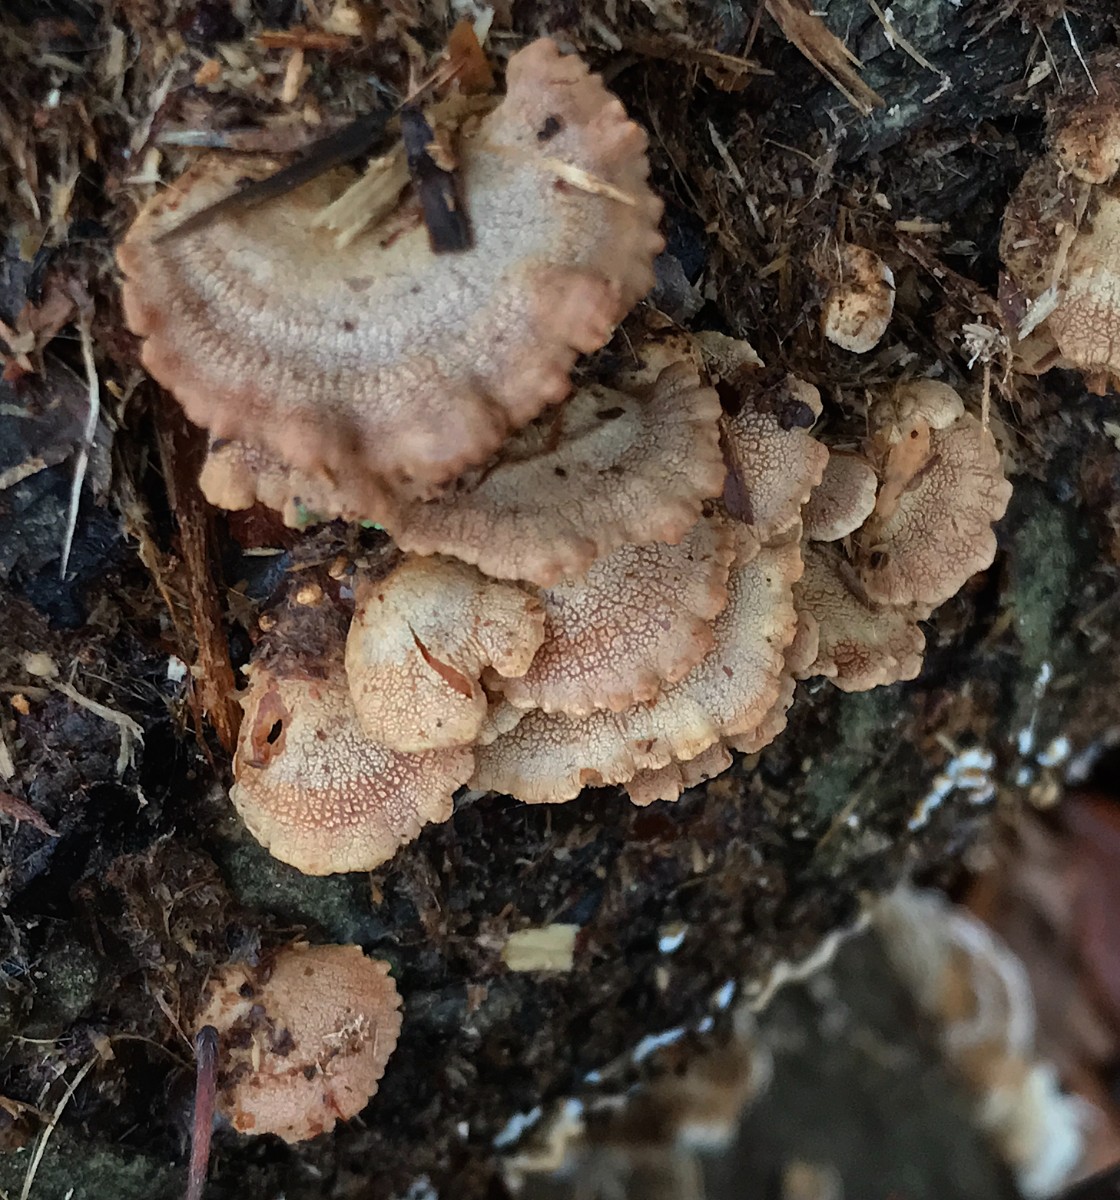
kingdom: Fungi
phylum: Basidiomycota
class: Agaricomycetes
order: Agaricales
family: Mycenaceae
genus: Panellus
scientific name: Panellus stipticus
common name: kliddet epaulethat
